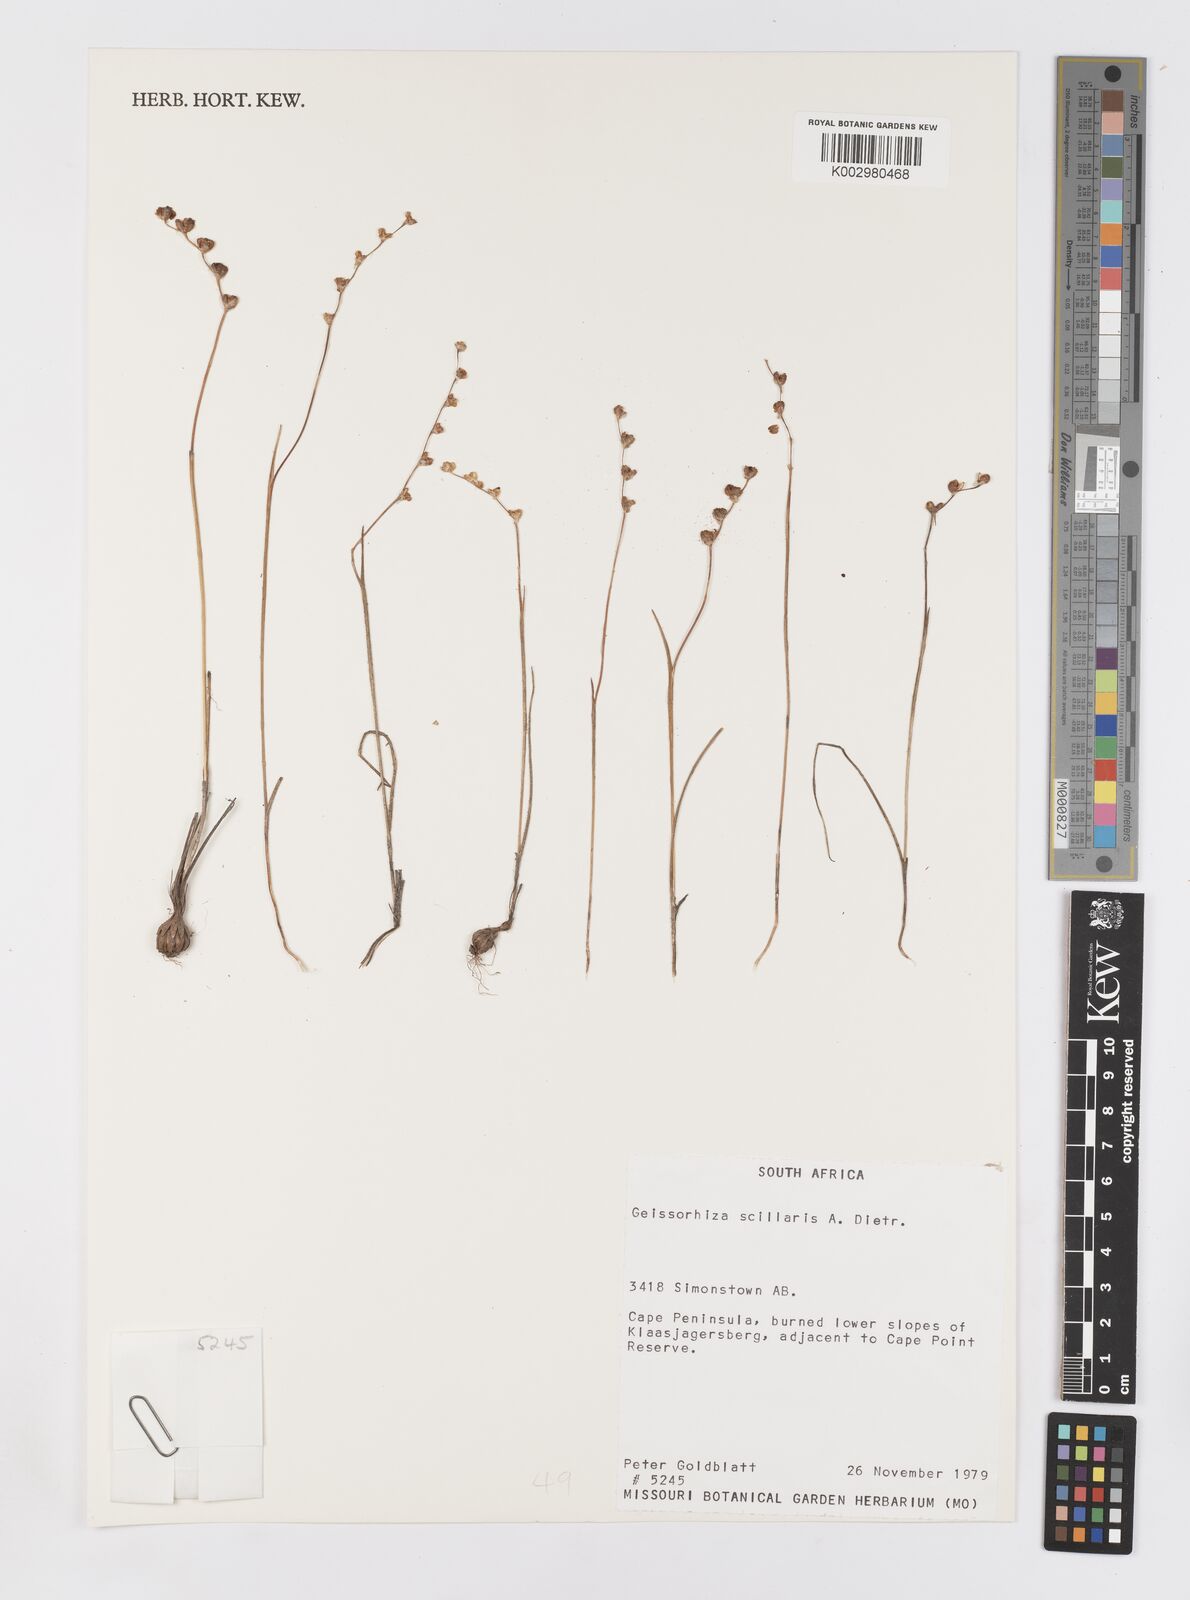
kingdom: Plantae
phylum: Tracheophyta
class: Liliopsida
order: Asparagales
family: Iridaceae
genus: Geissorhiza
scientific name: Geissorhiza scillaris
